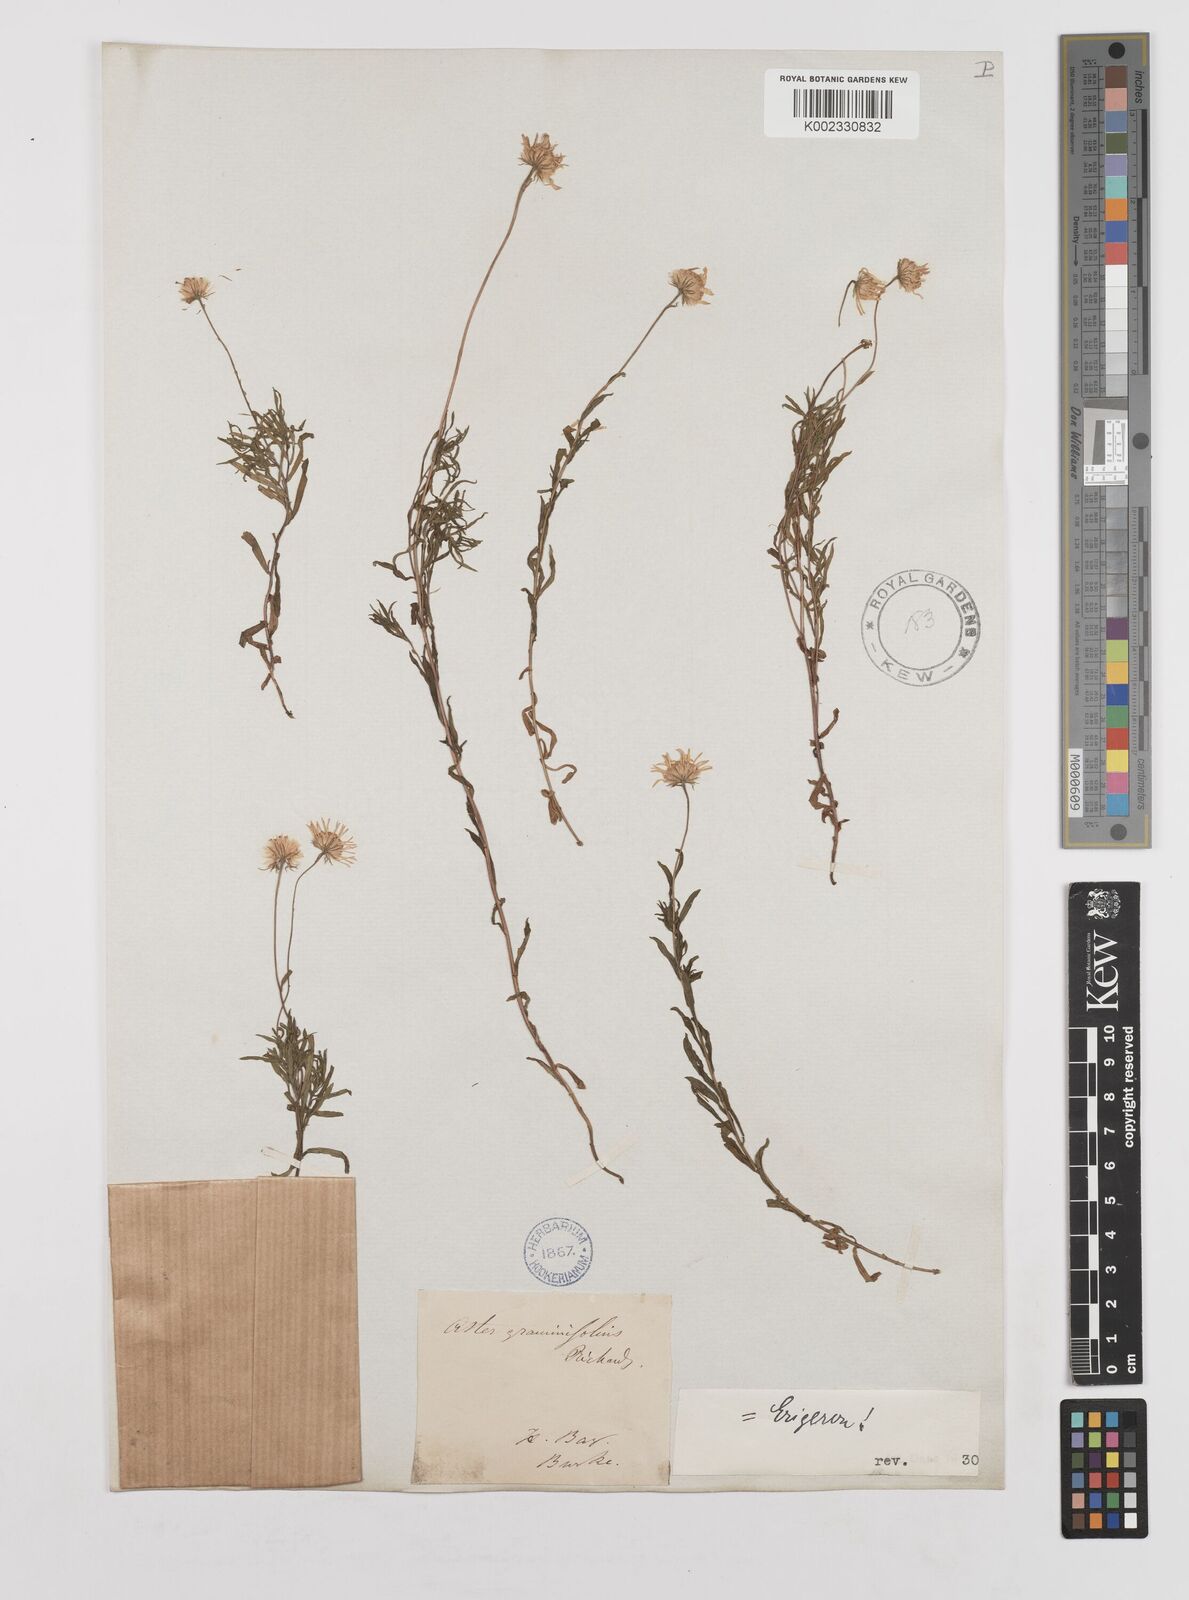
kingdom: Plantae
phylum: Tracheophyta
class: Magnoliopsida
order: Asterales
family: Asteraceae
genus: Erigeron
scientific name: Erigeron hyssopifolius
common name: Daisy fleabane
